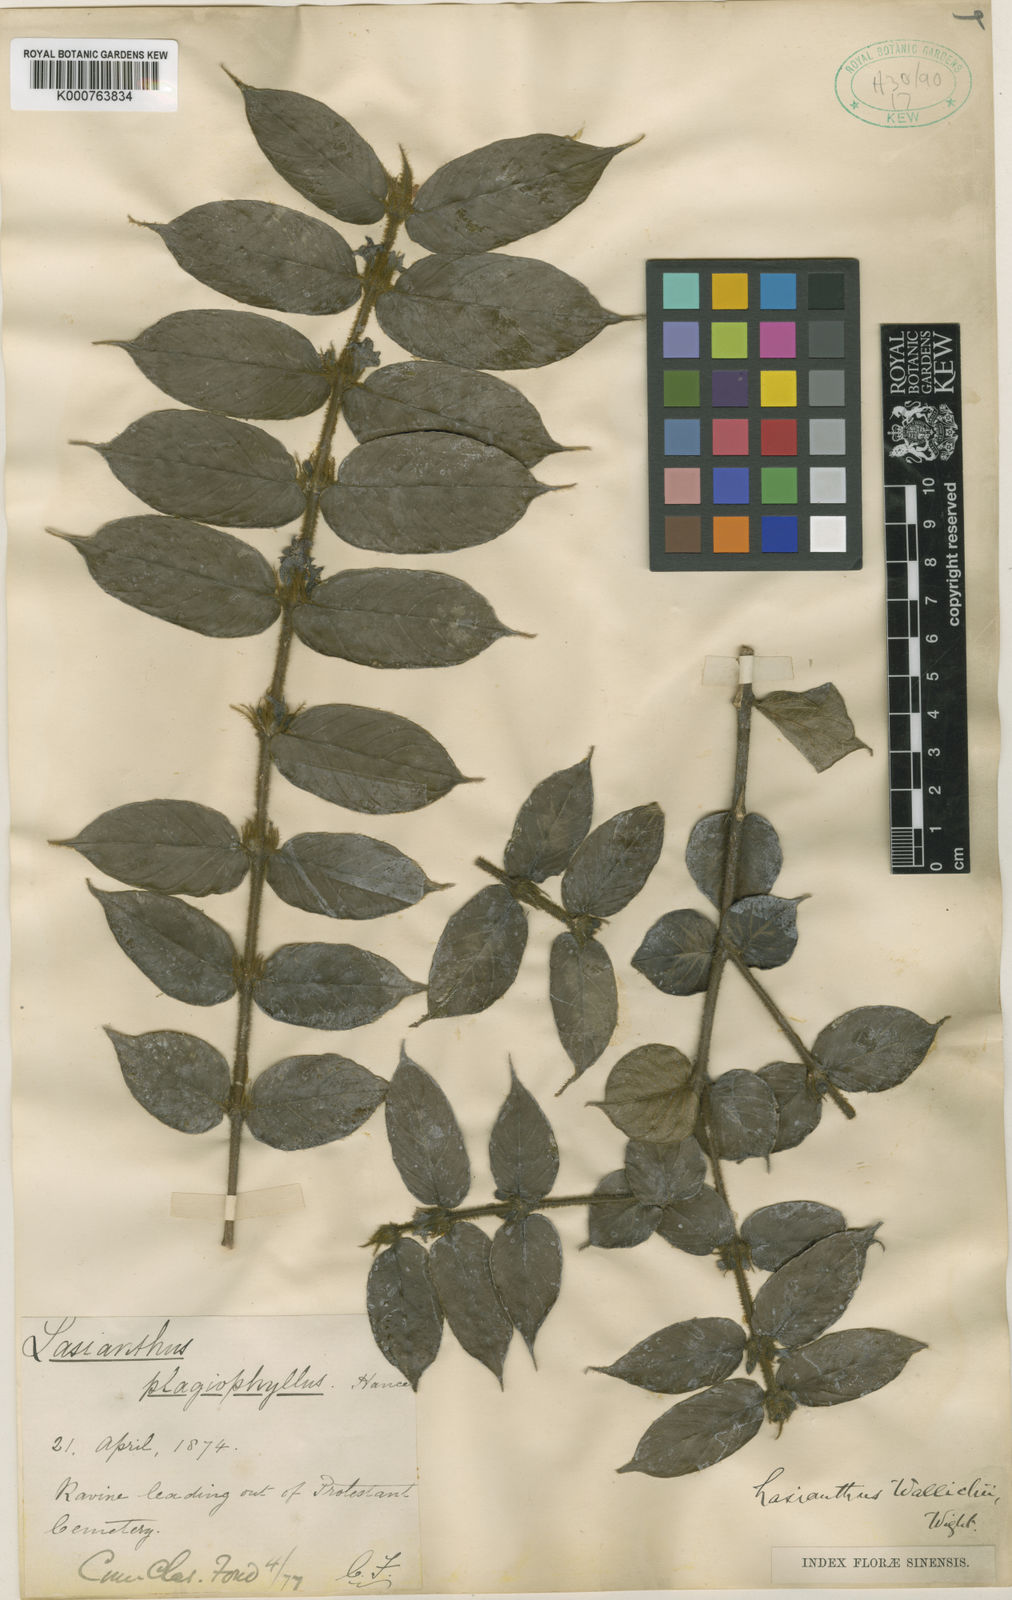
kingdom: Plantae
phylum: Tracheophyta
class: Magnoliopsida
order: Gentianales
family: Rubiaceae
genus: Lasianthus
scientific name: Lasianthus attenuatus
